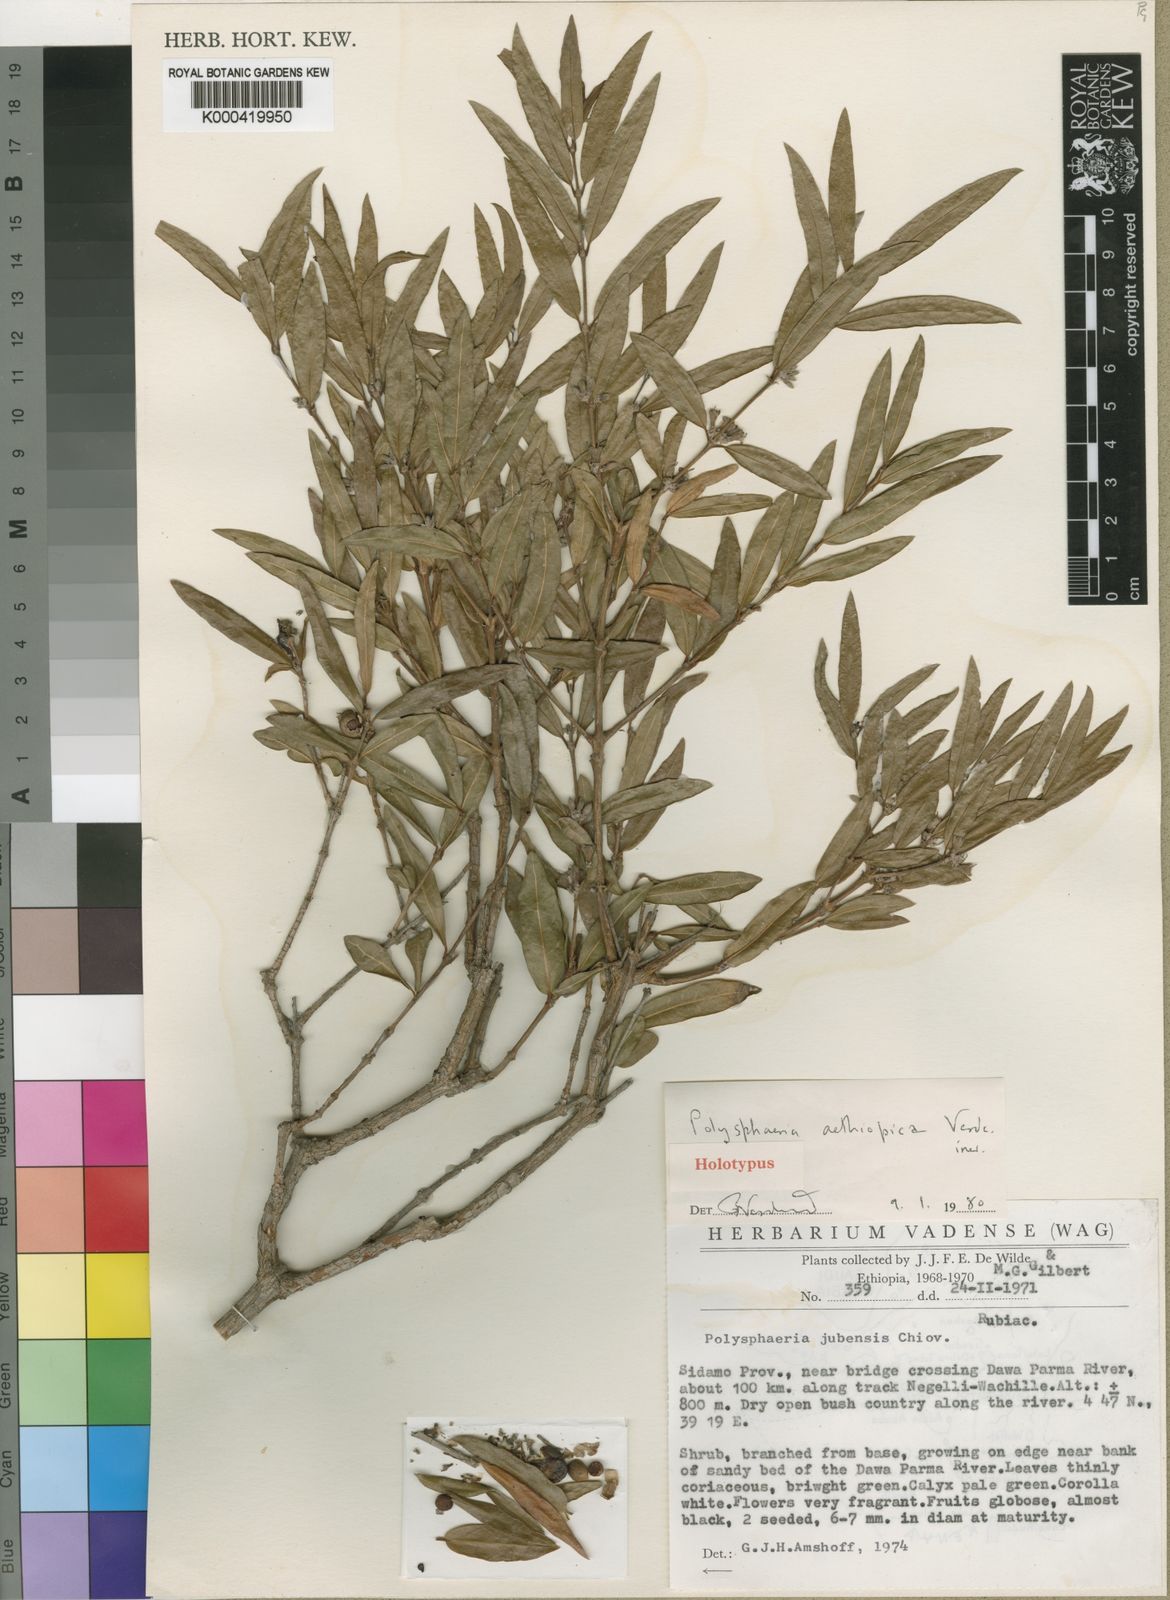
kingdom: Plantae
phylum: Tracheophyta
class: Magnoliopsida
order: Gentianales
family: Rubiaceae
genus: Polysphaeria
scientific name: Polysphaeria aethiopica
